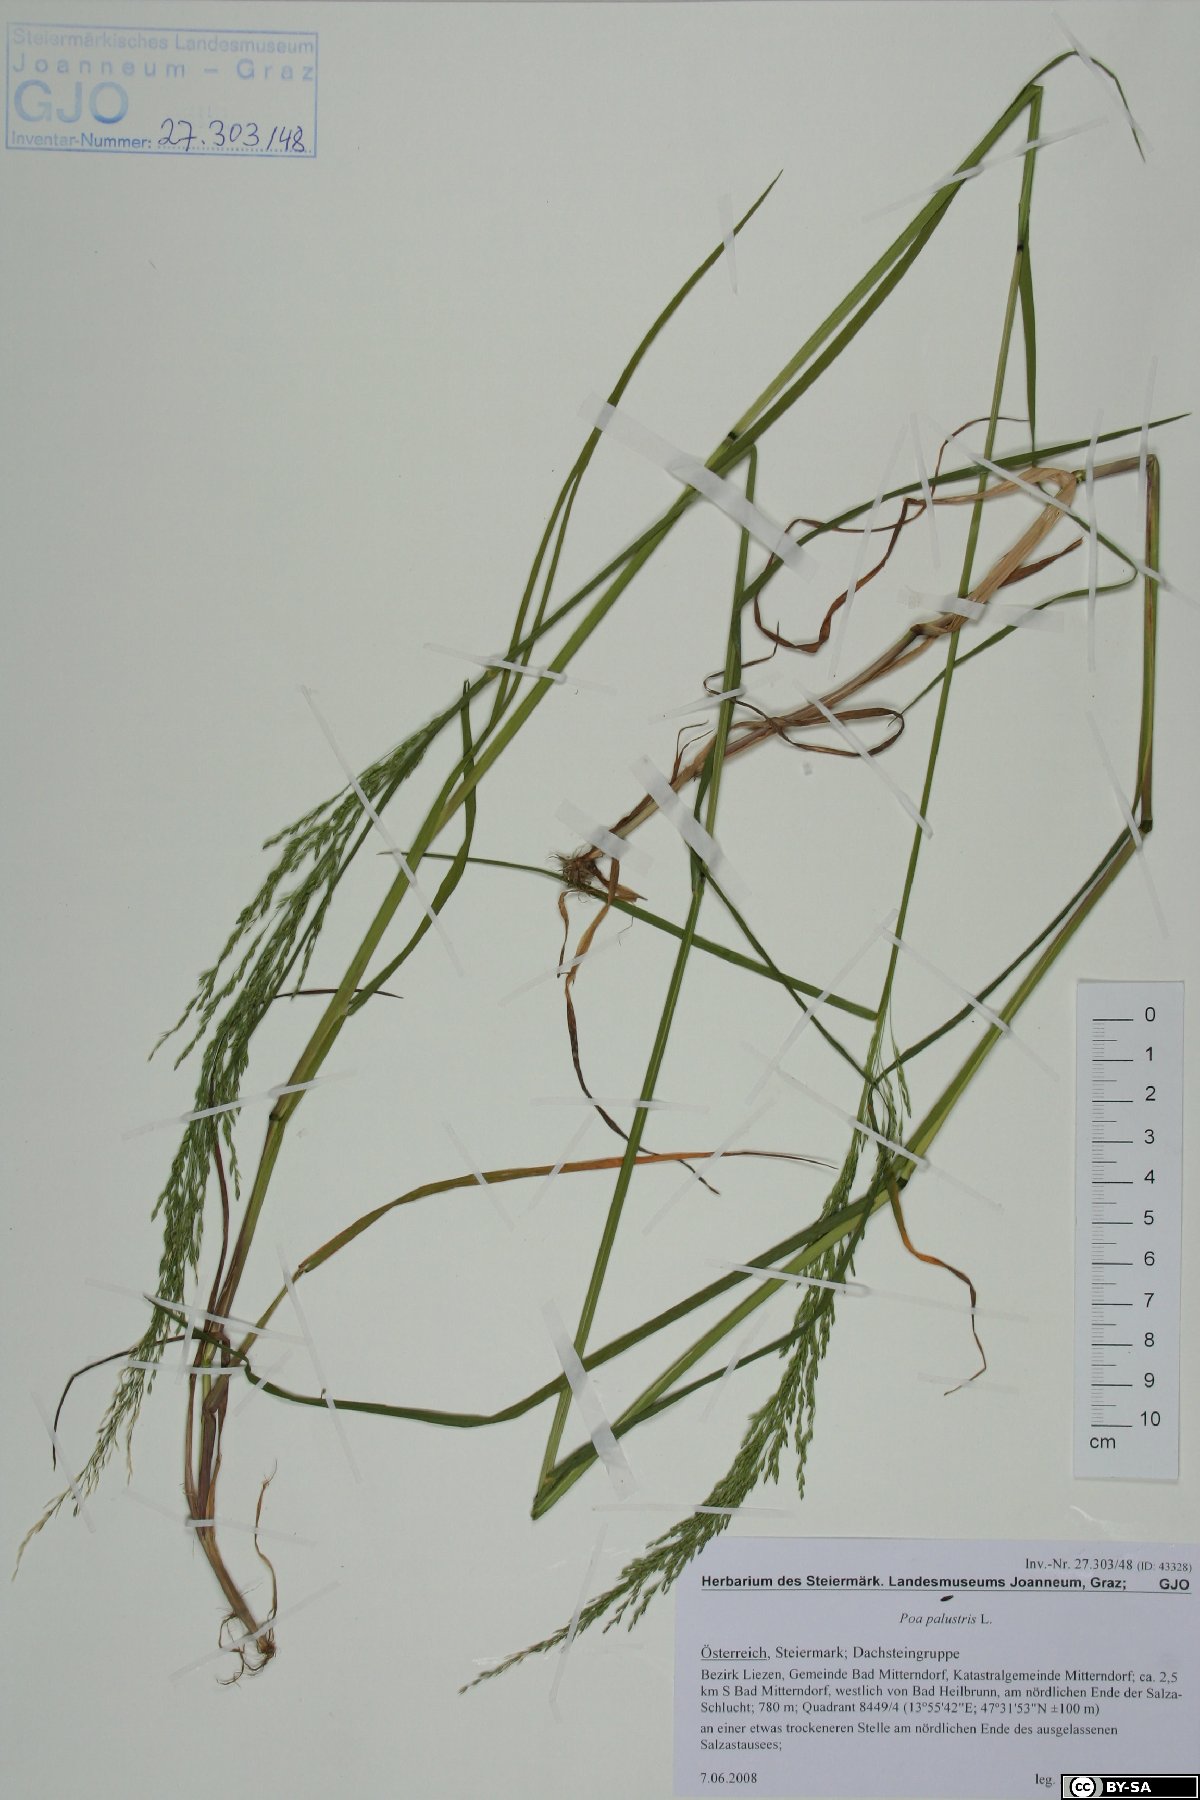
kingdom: Plantae
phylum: Tracheophyta
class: Liliopsida
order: Poales
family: Poaceae
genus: Poa
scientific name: Poa palustris
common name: Swamp meadow-grass
